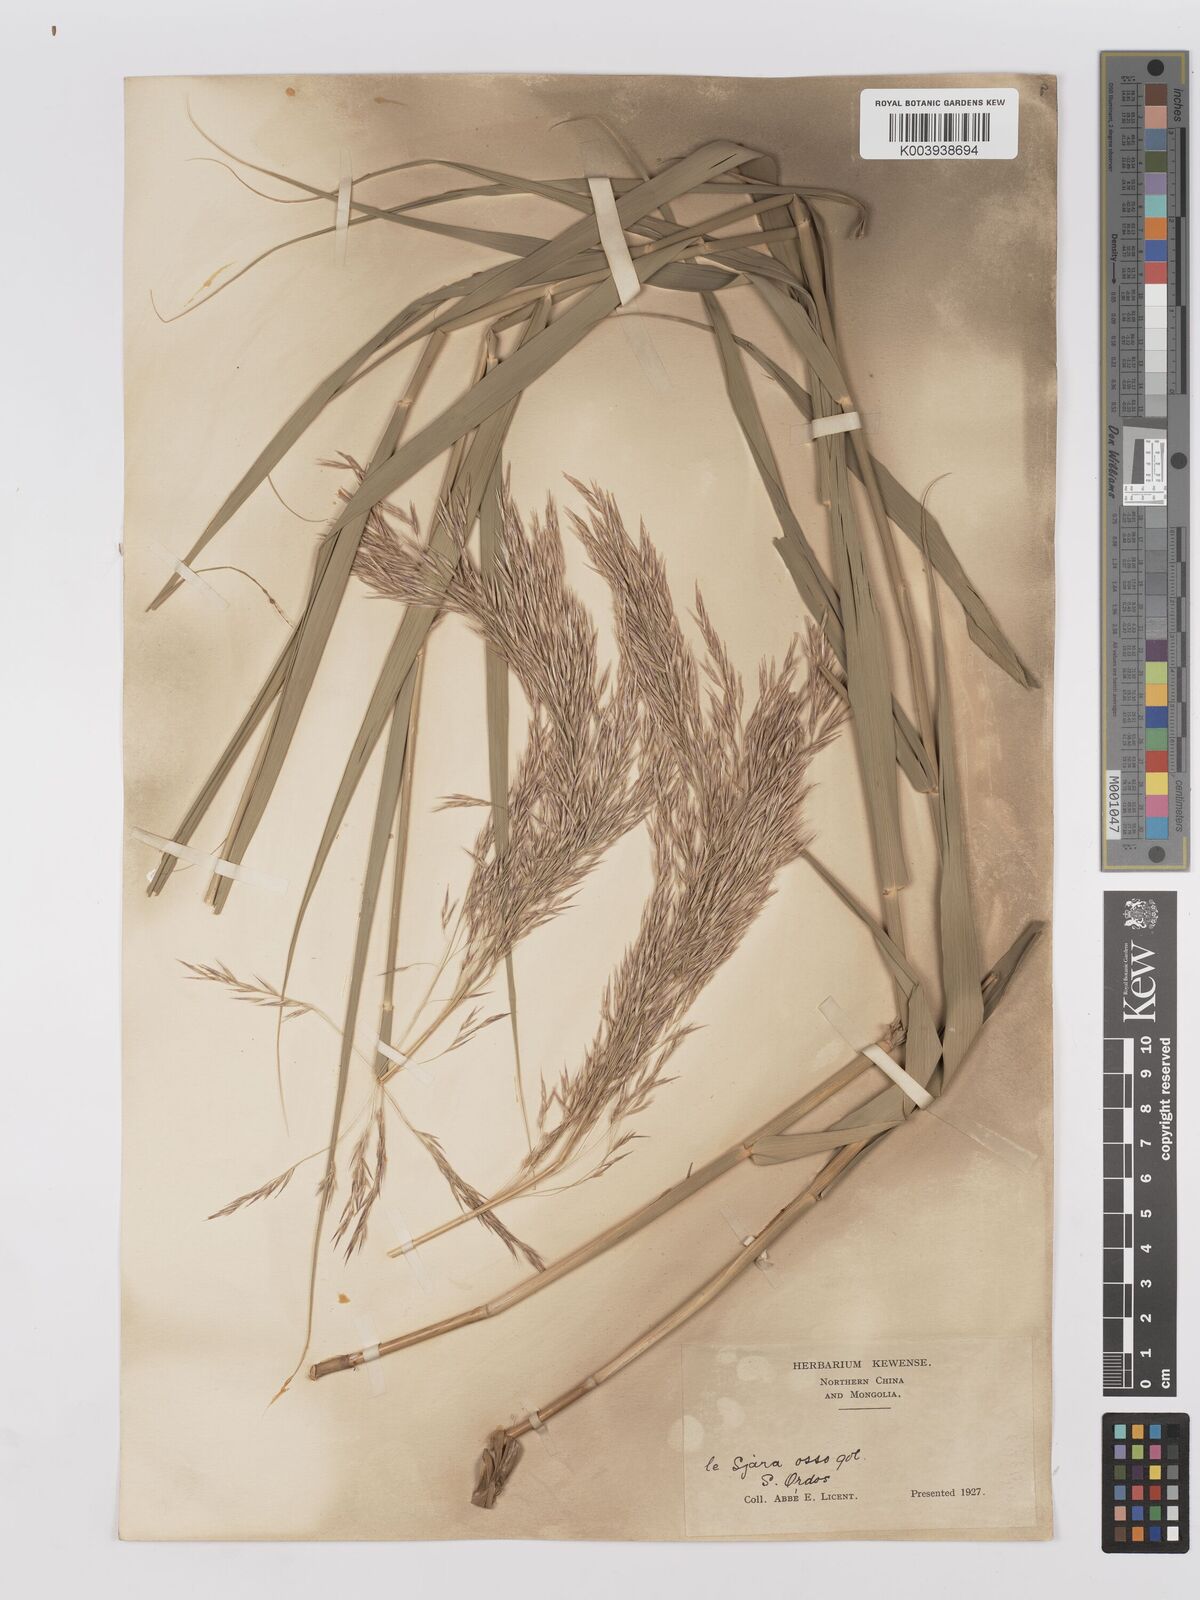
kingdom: Plantae
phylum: Tracheophyta
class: Liliopsida
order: Poales
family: Poaceae
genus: Phragmites
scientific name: Phragmites australis
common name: Common reed
